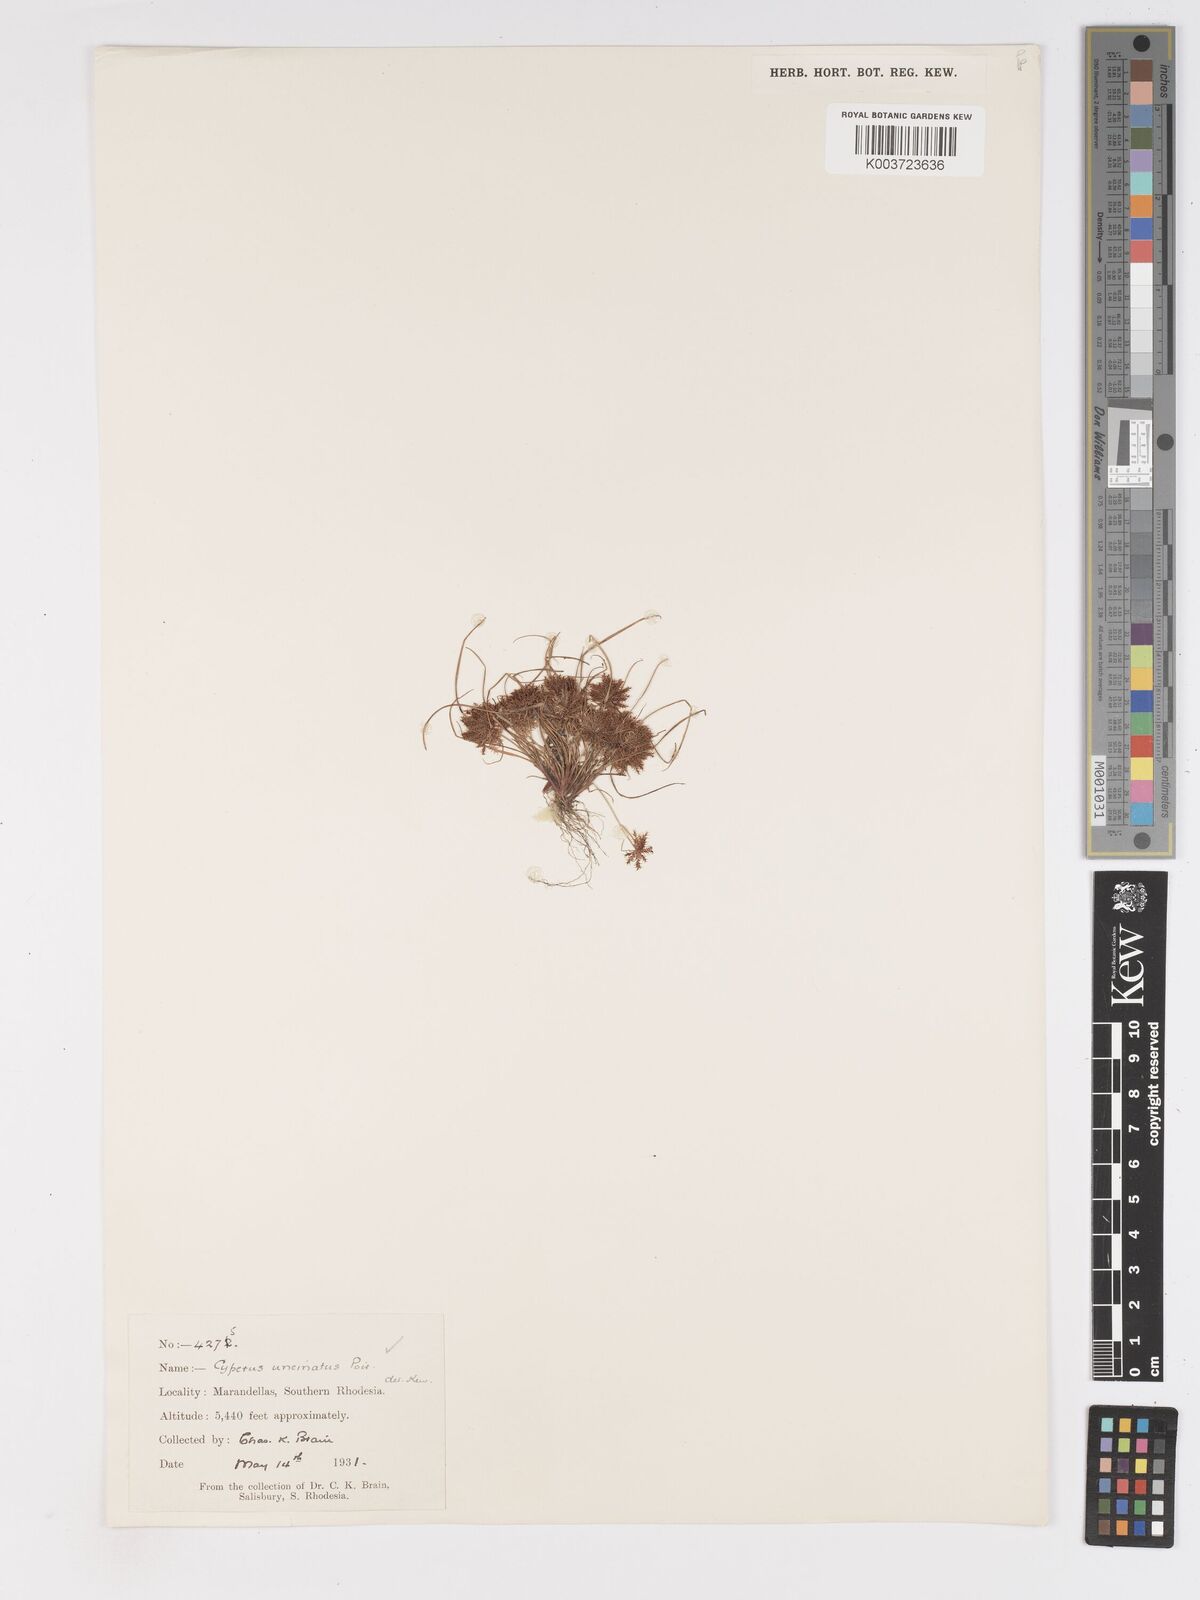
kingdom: Plantae
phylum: Tracheophyta
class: Liliopsida
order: Poales
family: Cyperaceae
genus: Cyperus
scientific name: Cyperus betafensis
